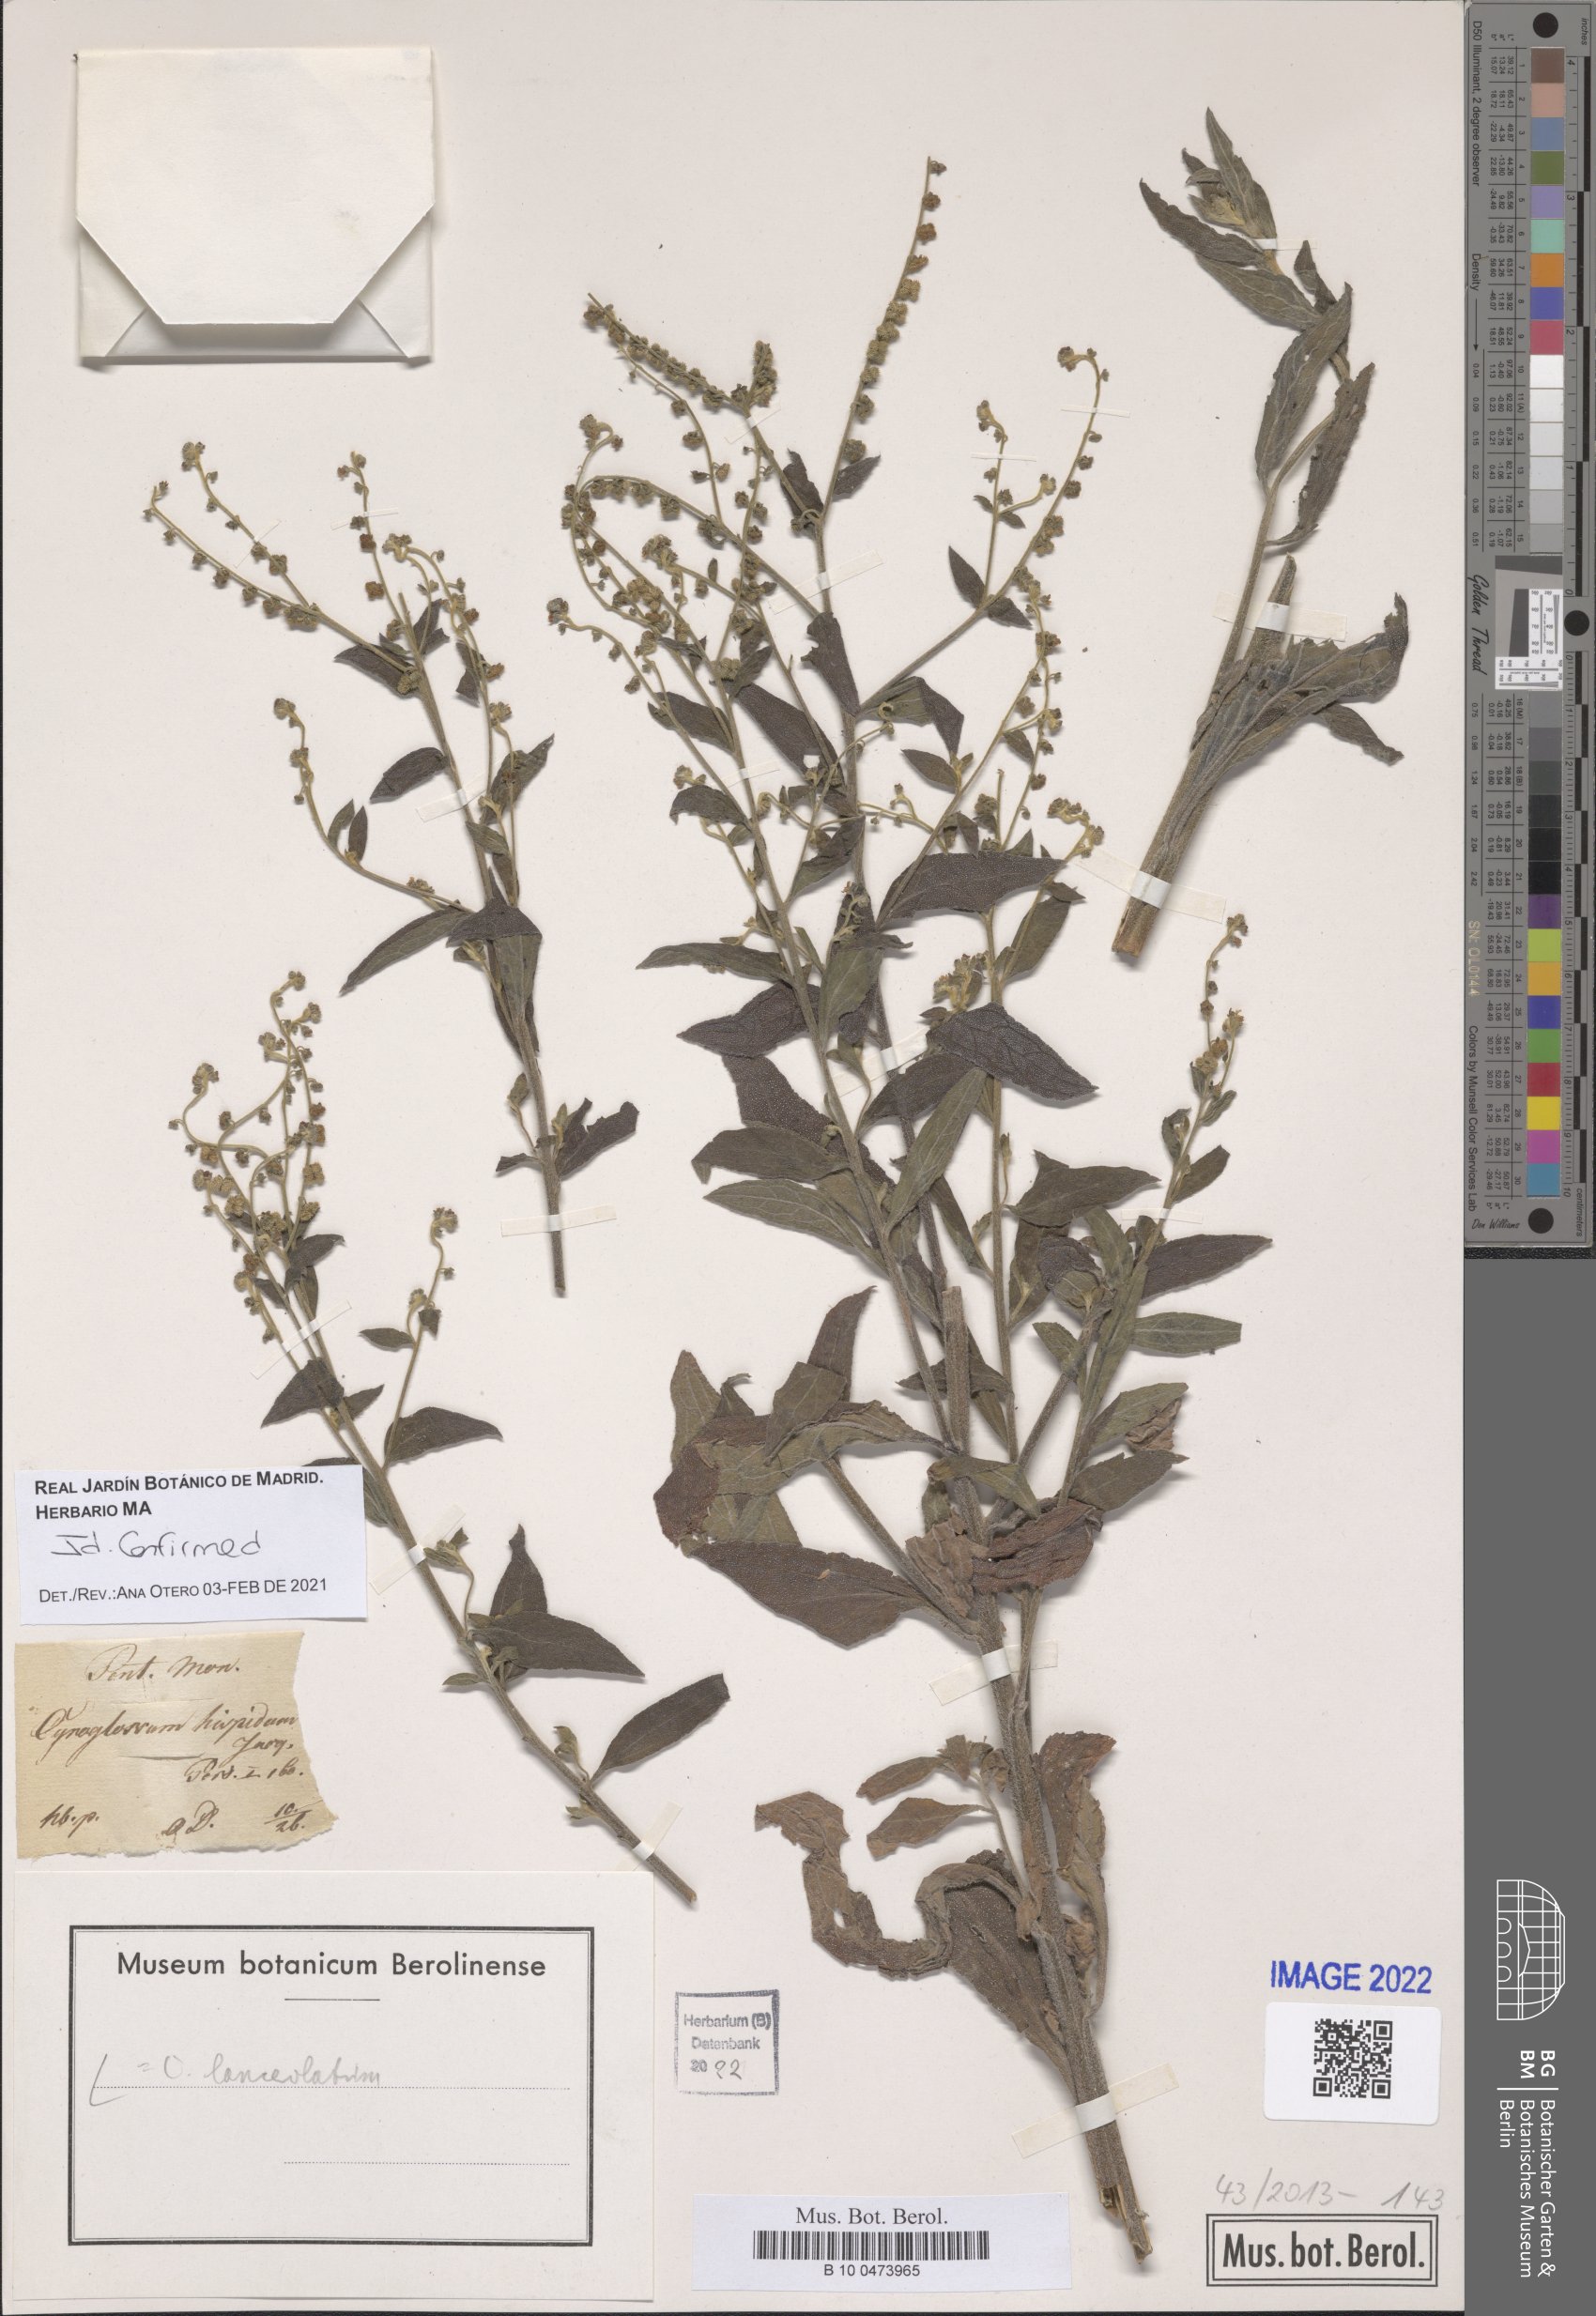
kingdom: Plantae
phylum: Tracheophyta
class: Magnoliopsida
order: Boraginales
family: Boraginaceae
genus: Paracynoglossum
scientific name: Paracynoglossum lanceolatum
